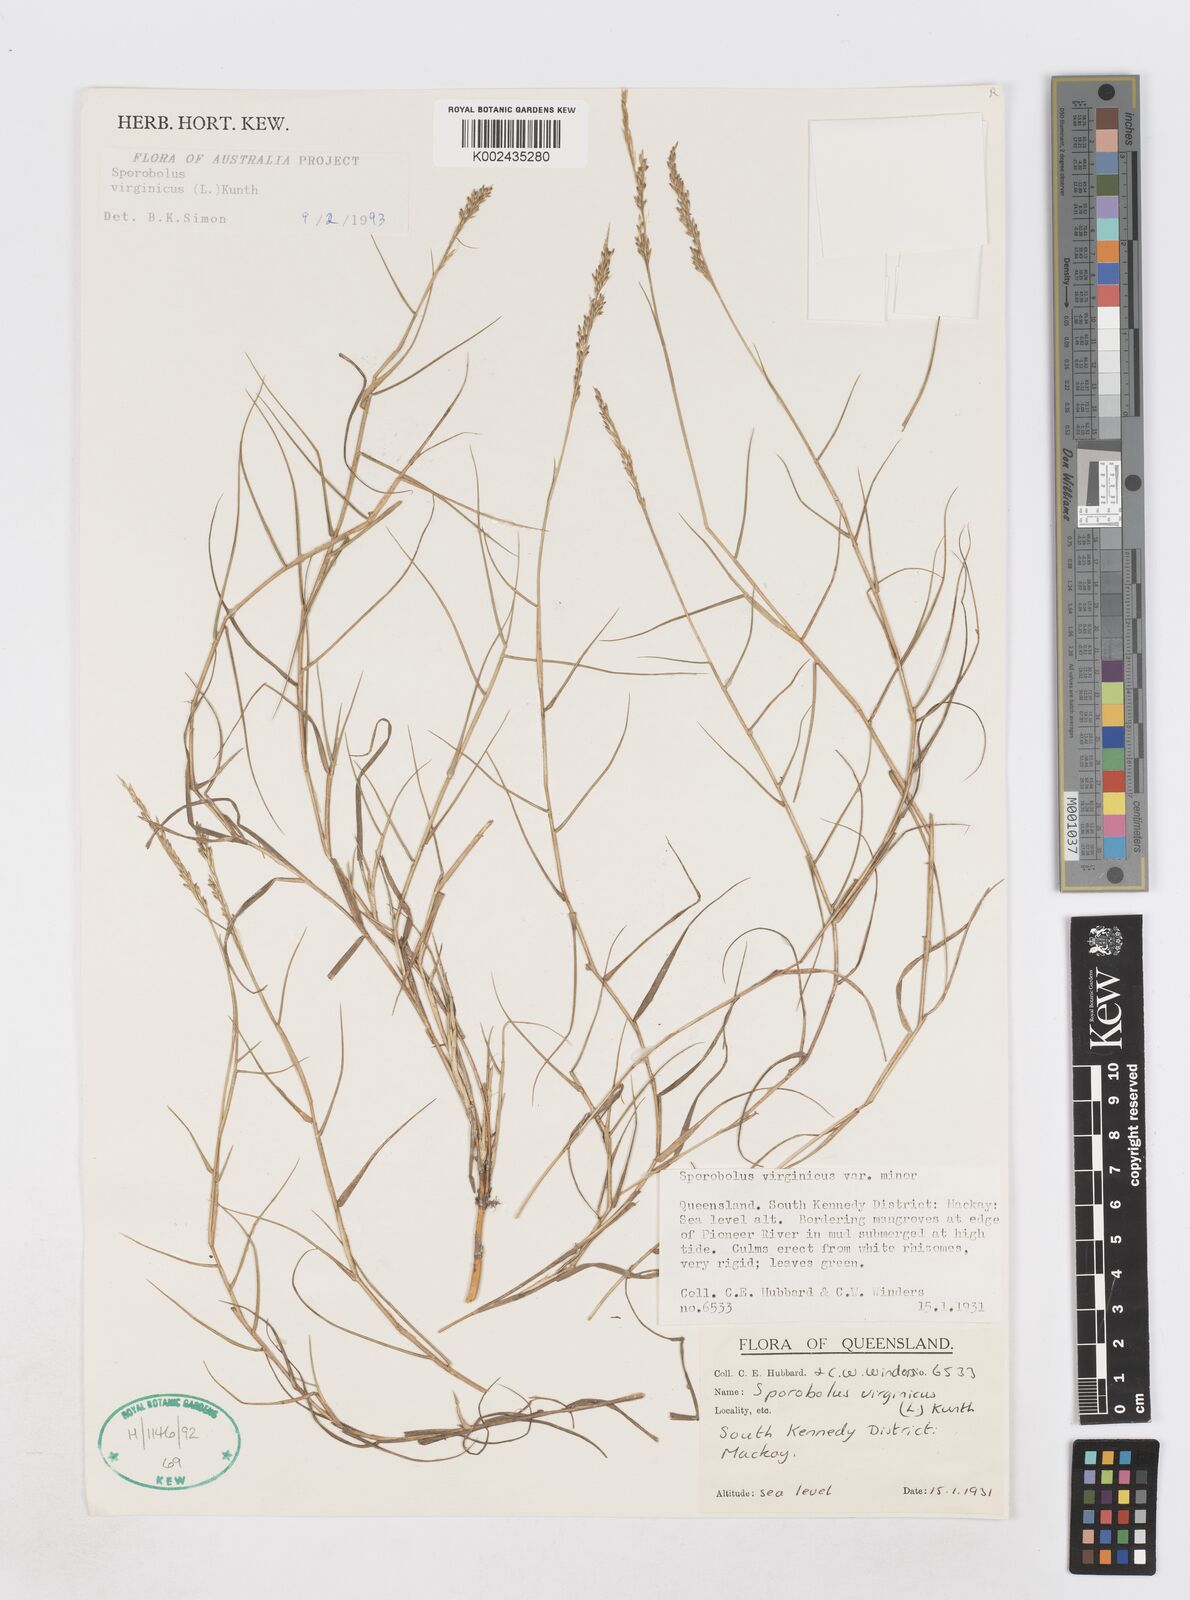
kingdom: Plantae
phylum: Tracheophyta
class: Liliopsida
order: Poales
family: Poaceae
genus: Sporobolus
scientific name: Sporobolus virginicus
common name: Beach dropseed
